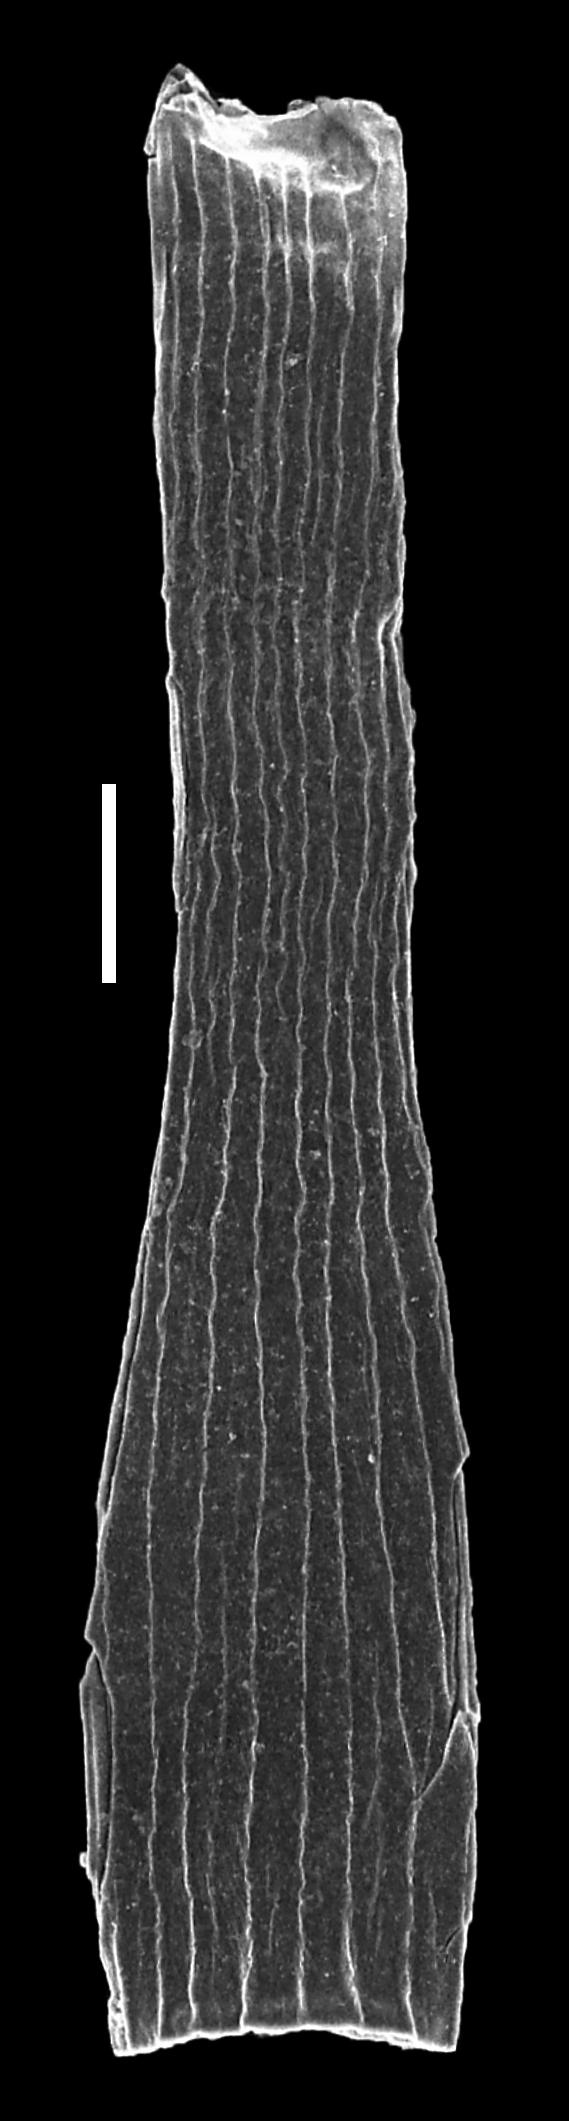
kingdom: Animalia
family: Conochitinidae
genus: Laufeldochitina
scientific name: Laufeldochitina
